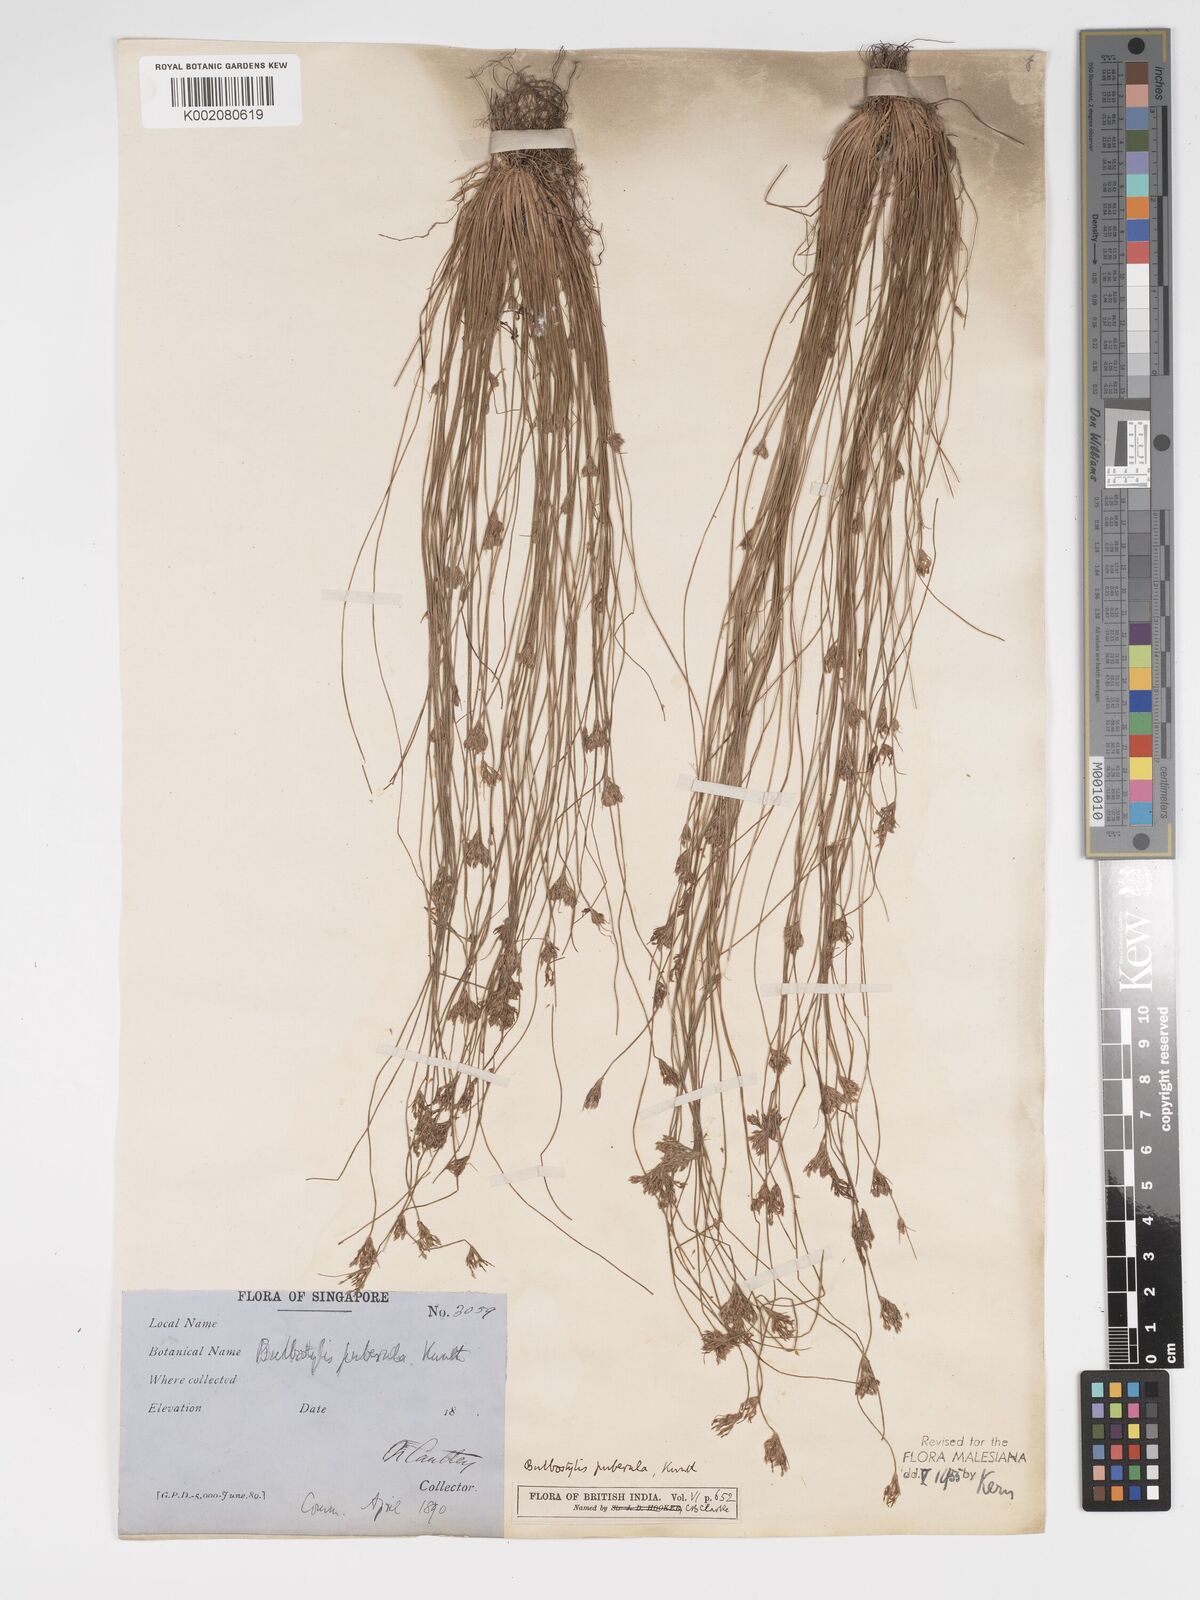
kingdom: Plantae
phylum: Tracheophyta
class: Liliopsida
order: Poales
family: Cyperaceae
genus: Bulbostylis
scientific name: Bulbostylis thouarsii
